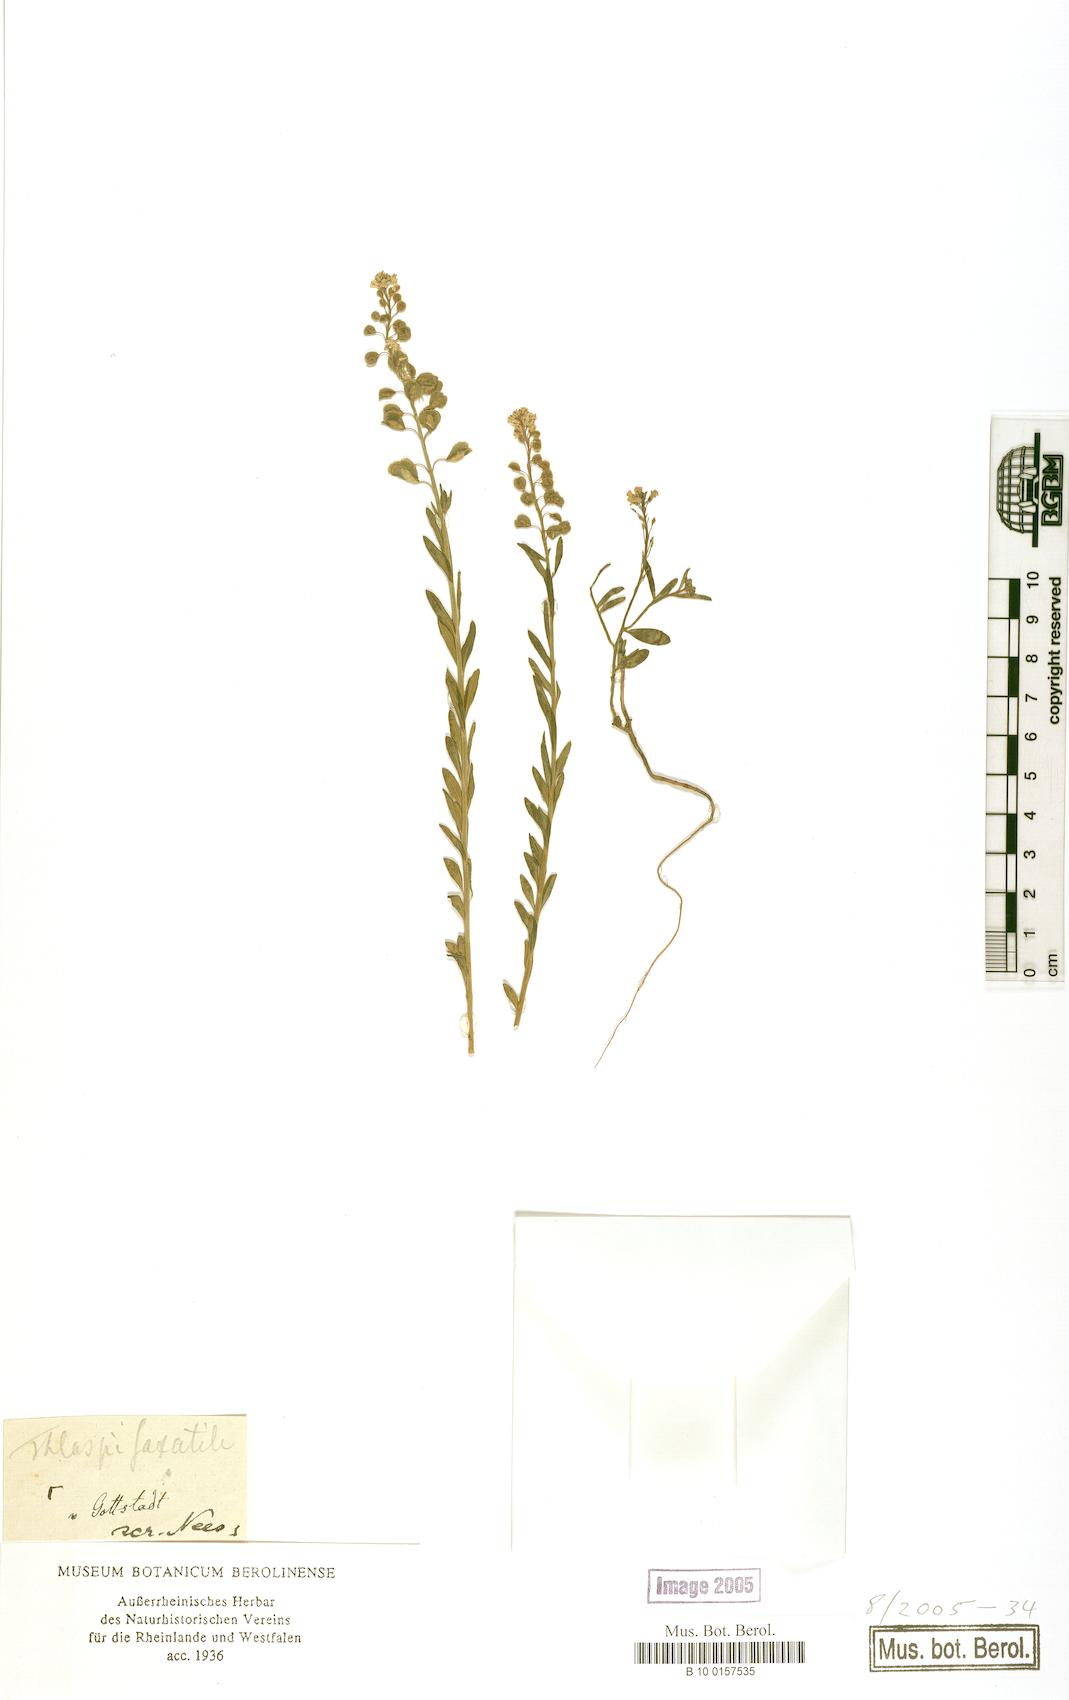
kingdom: Plantae
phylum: Tracheophyta
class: Magnoliopsida
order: Brassicales
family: Brassicaceae
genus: Aethionema
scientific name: Aethionema saxatile
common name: Burnt candytuft
